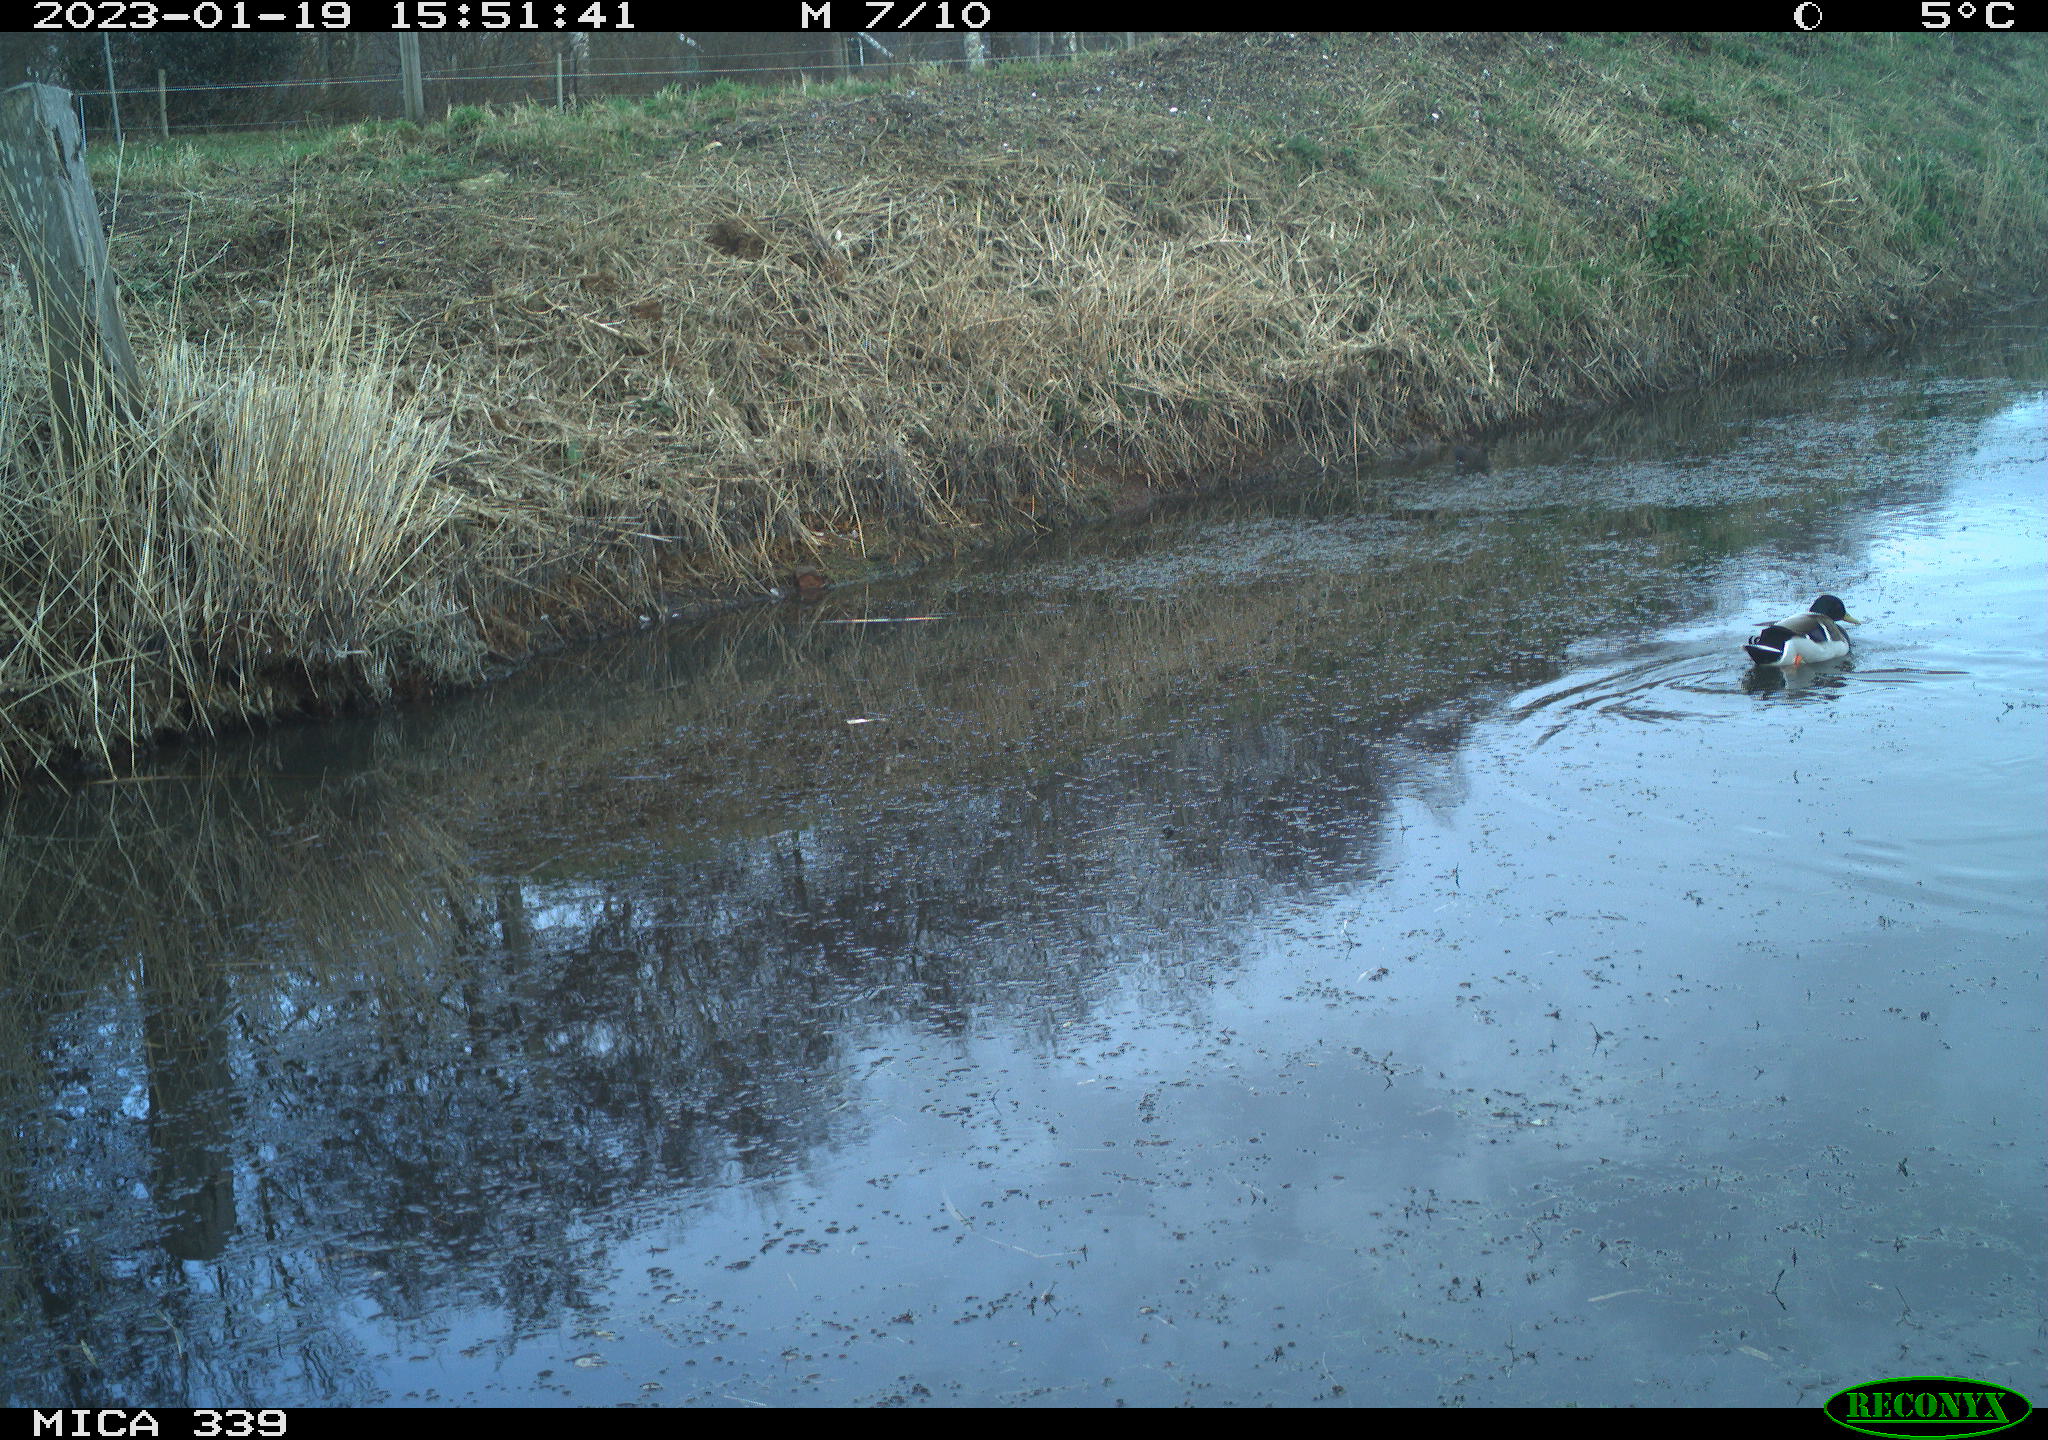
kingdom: Animalia
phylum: Chordata
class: Aves
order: Anseriformes
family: Anatidae
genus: Anas
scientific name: Anas
